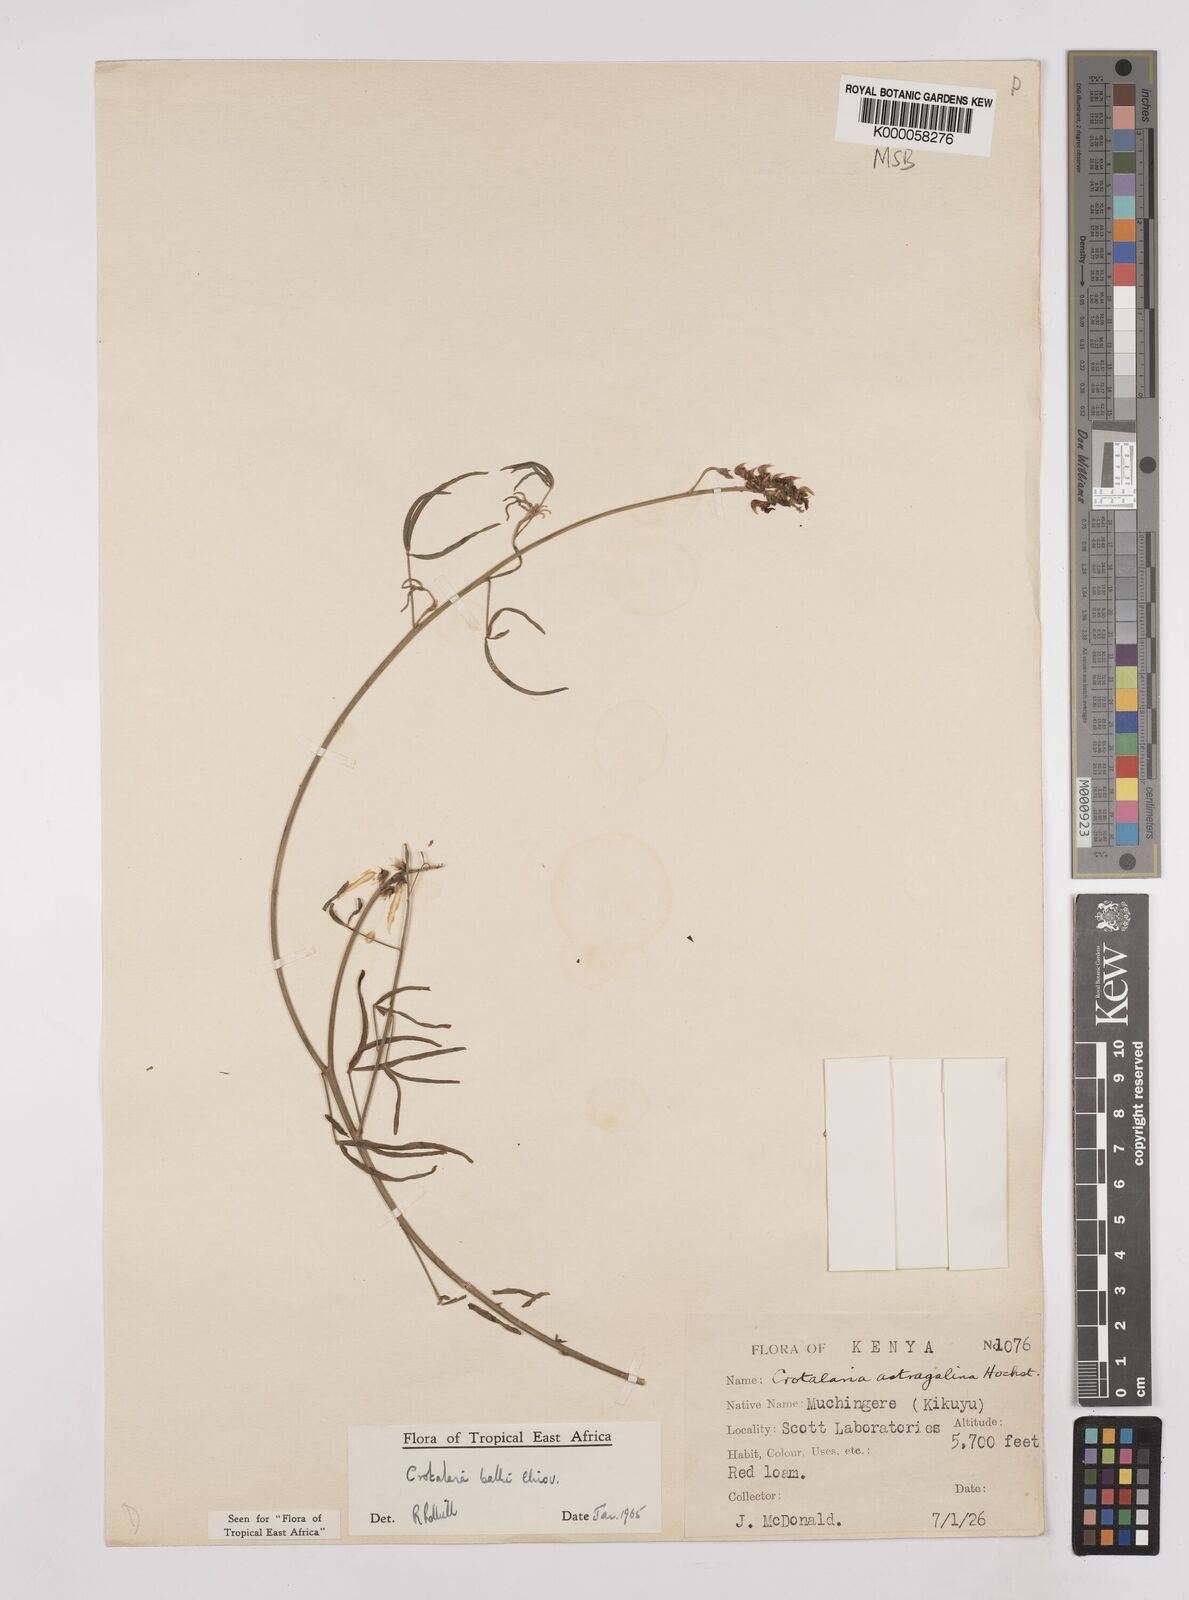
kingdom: Plantae
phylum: Tracheophyta
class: Magnoliopsida
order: Fabales
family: Fabaceae
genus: Crotalaria
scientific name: Crotalaria balbi
